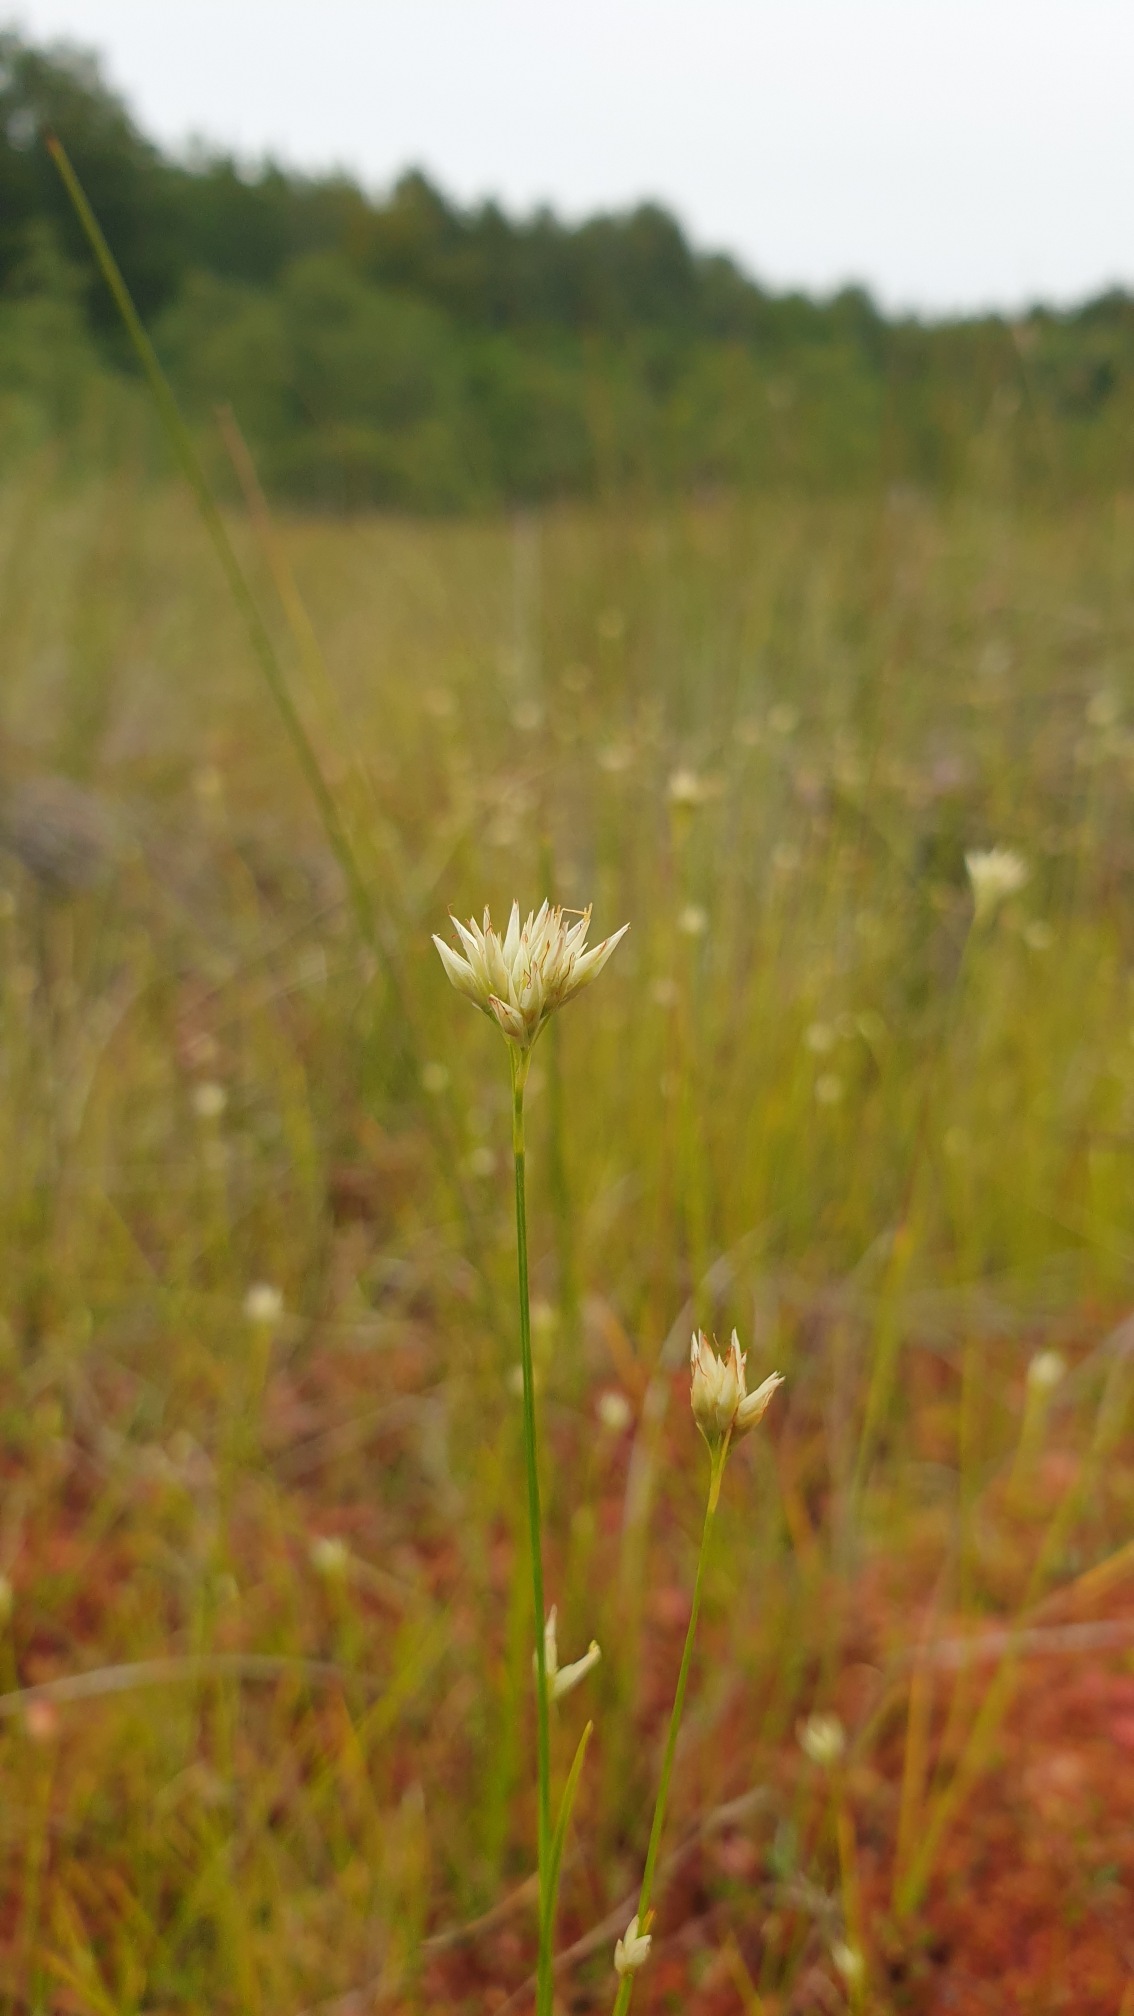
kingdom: Plantae
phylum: Tracheophyta
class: Liliopsida
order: Poales
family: Cyperaceae
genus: Rhynchospora
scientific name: Rhynchospora alba
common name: Hvid næbfrø
